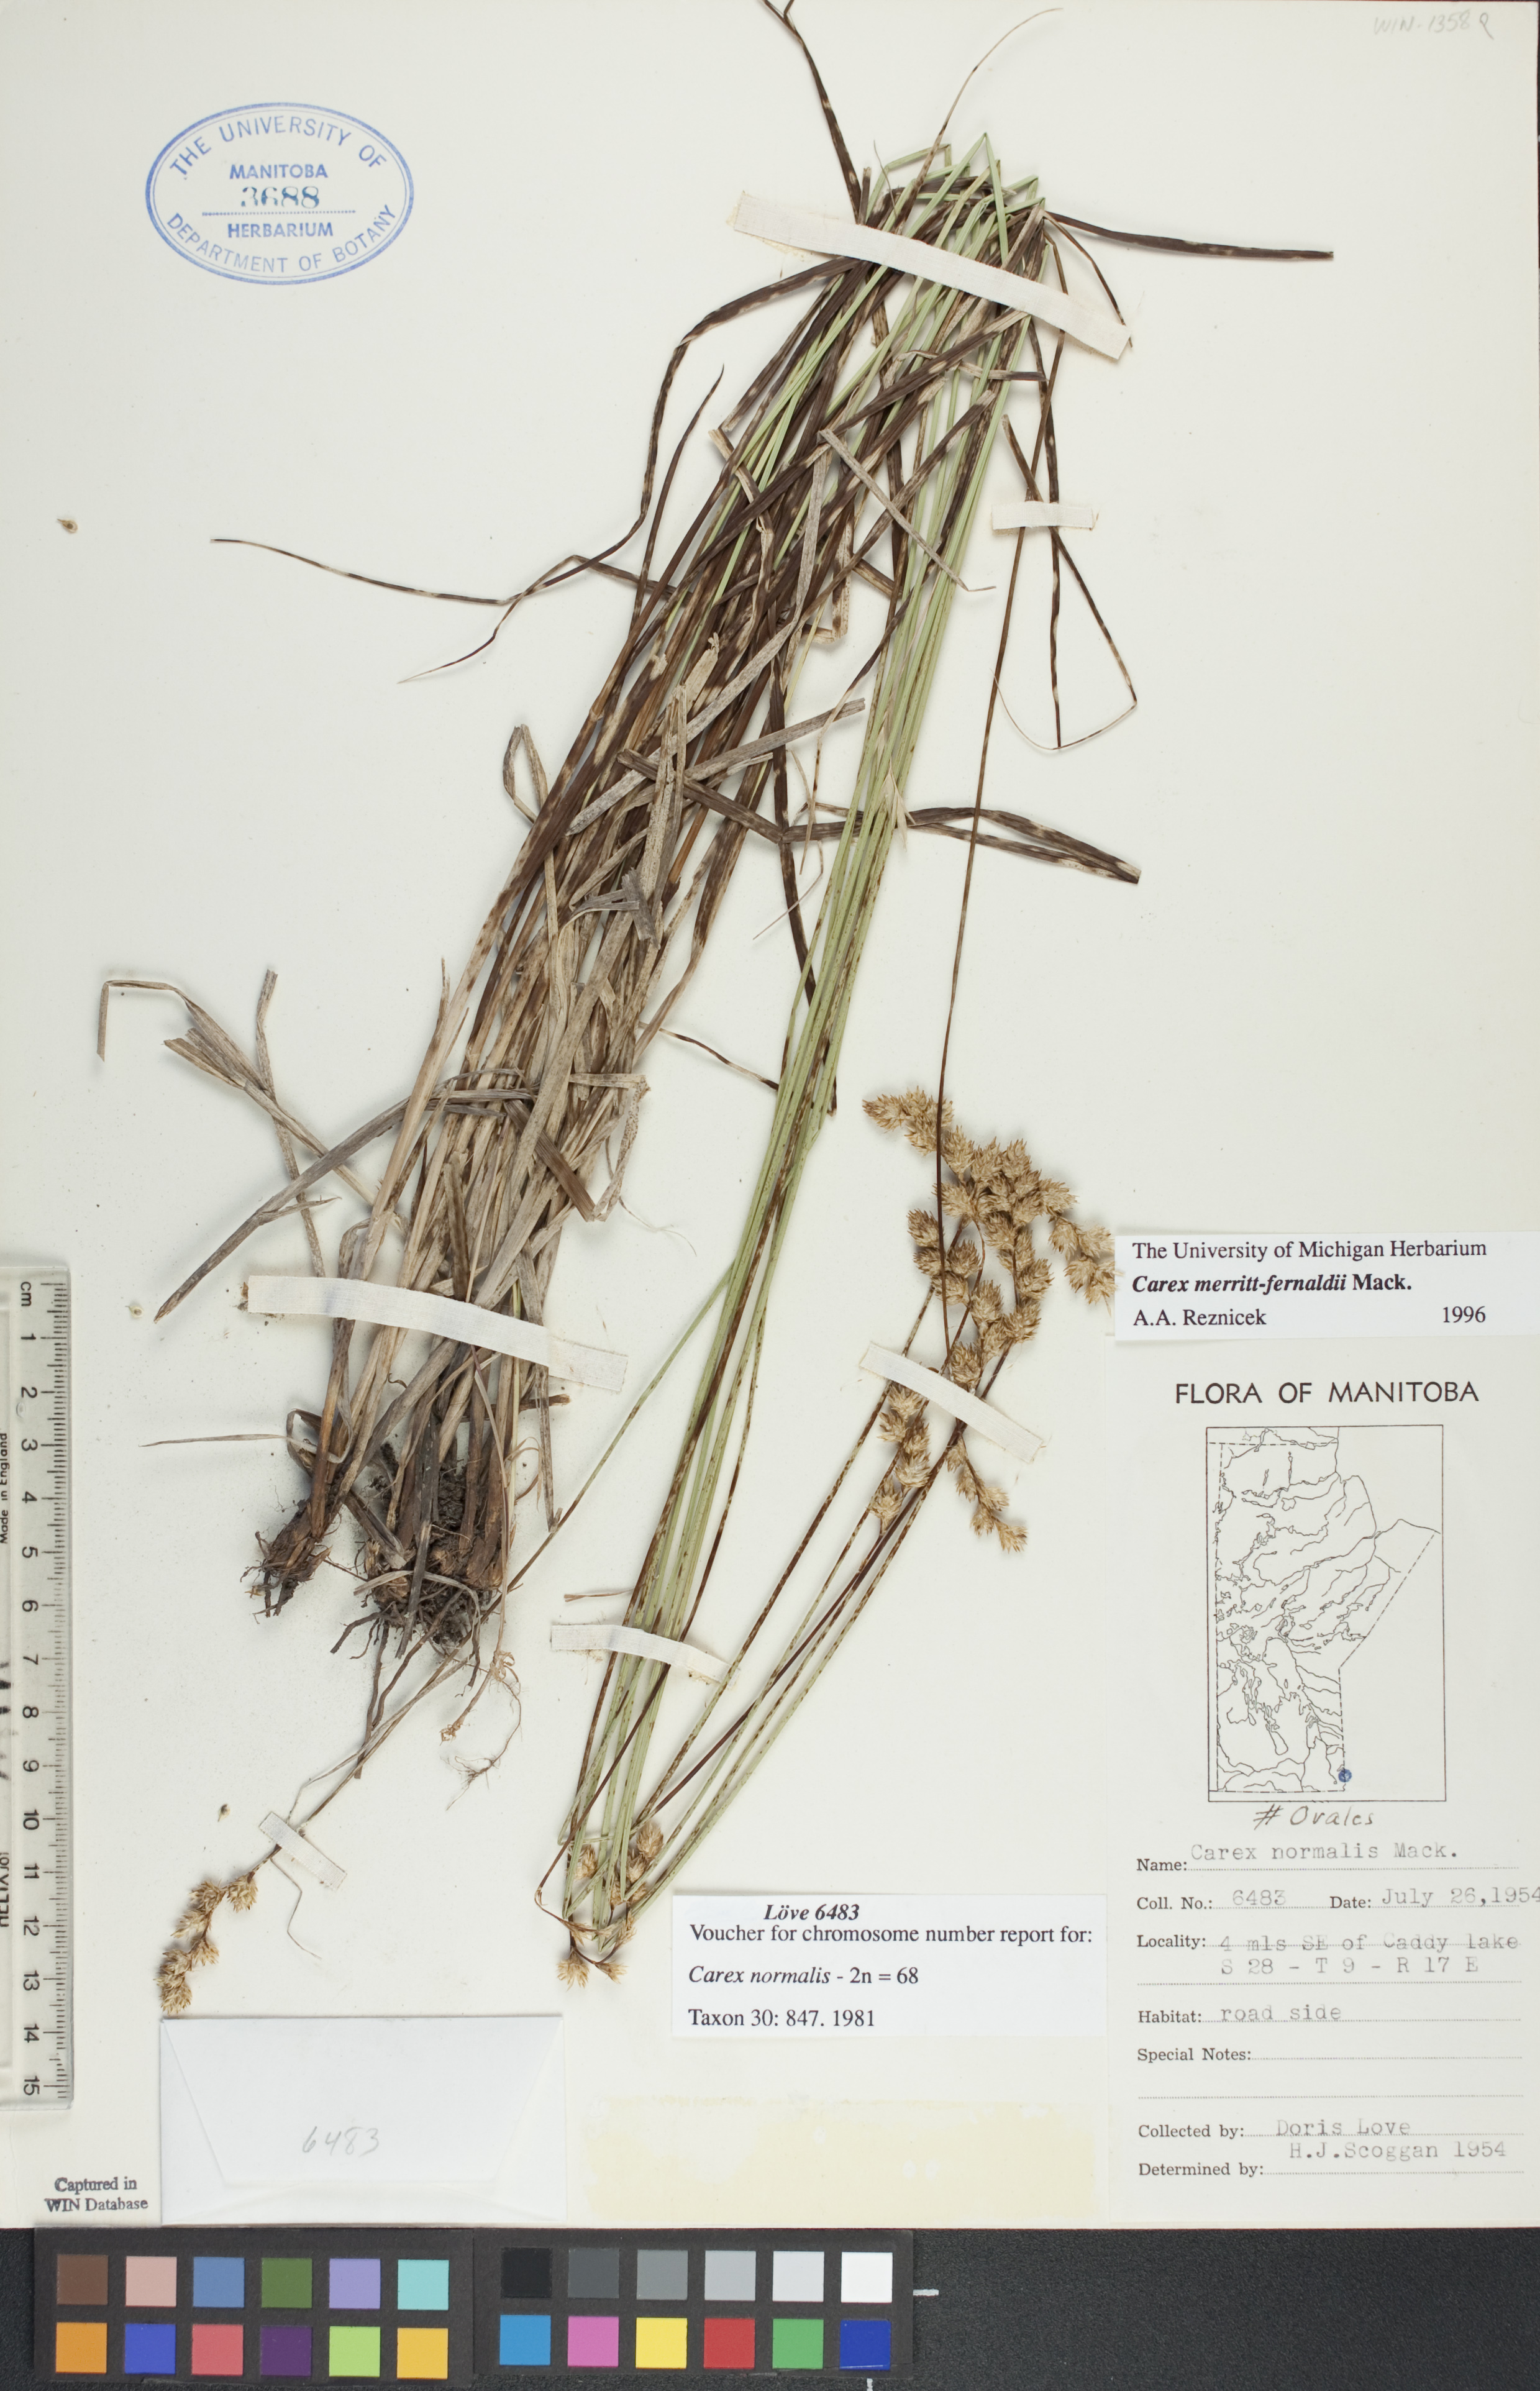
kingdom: Plantae
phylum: Tracheophyta
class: Liliopsida
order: Poales
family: Cyperaceae
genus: Carex
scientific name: Carex merritt-fernaldii
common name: Fernald's oval sedge
